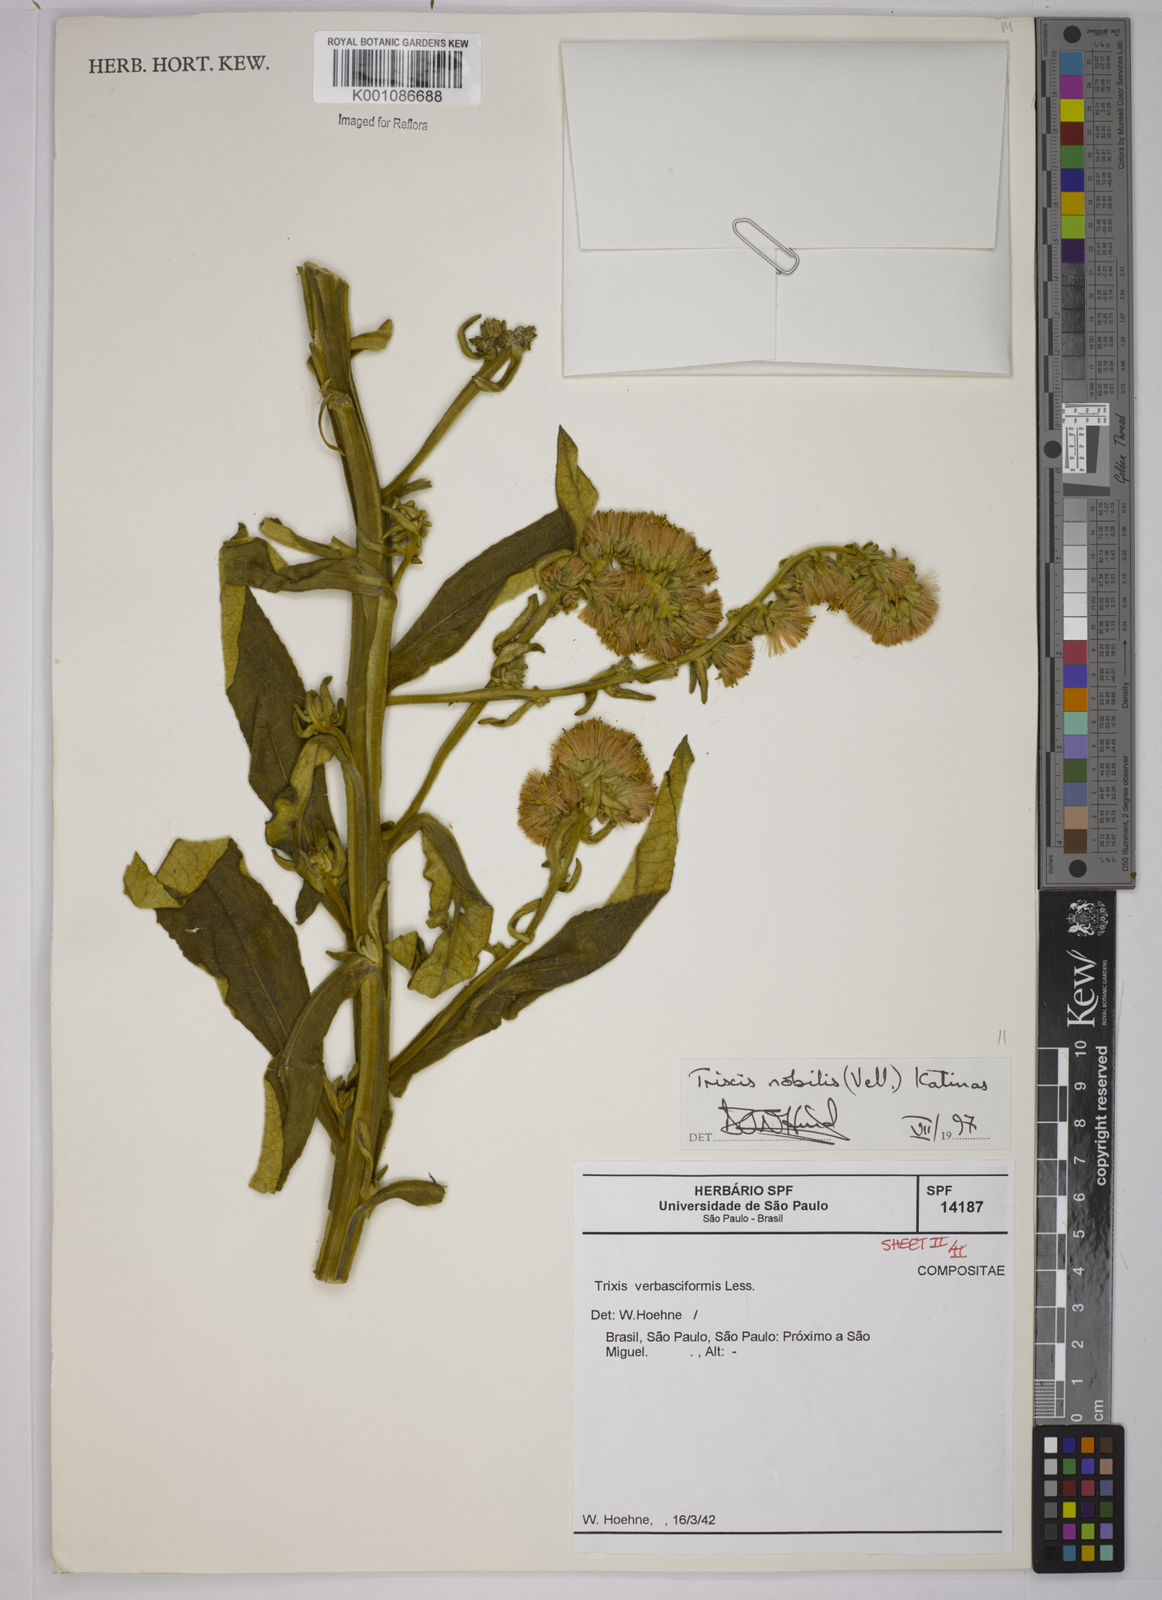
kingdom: Plantae
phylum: Tracheophyta
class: Magnoliopsida
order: Asterales
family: Asteraceae
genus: Trixis
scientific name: Trixis nobilis
